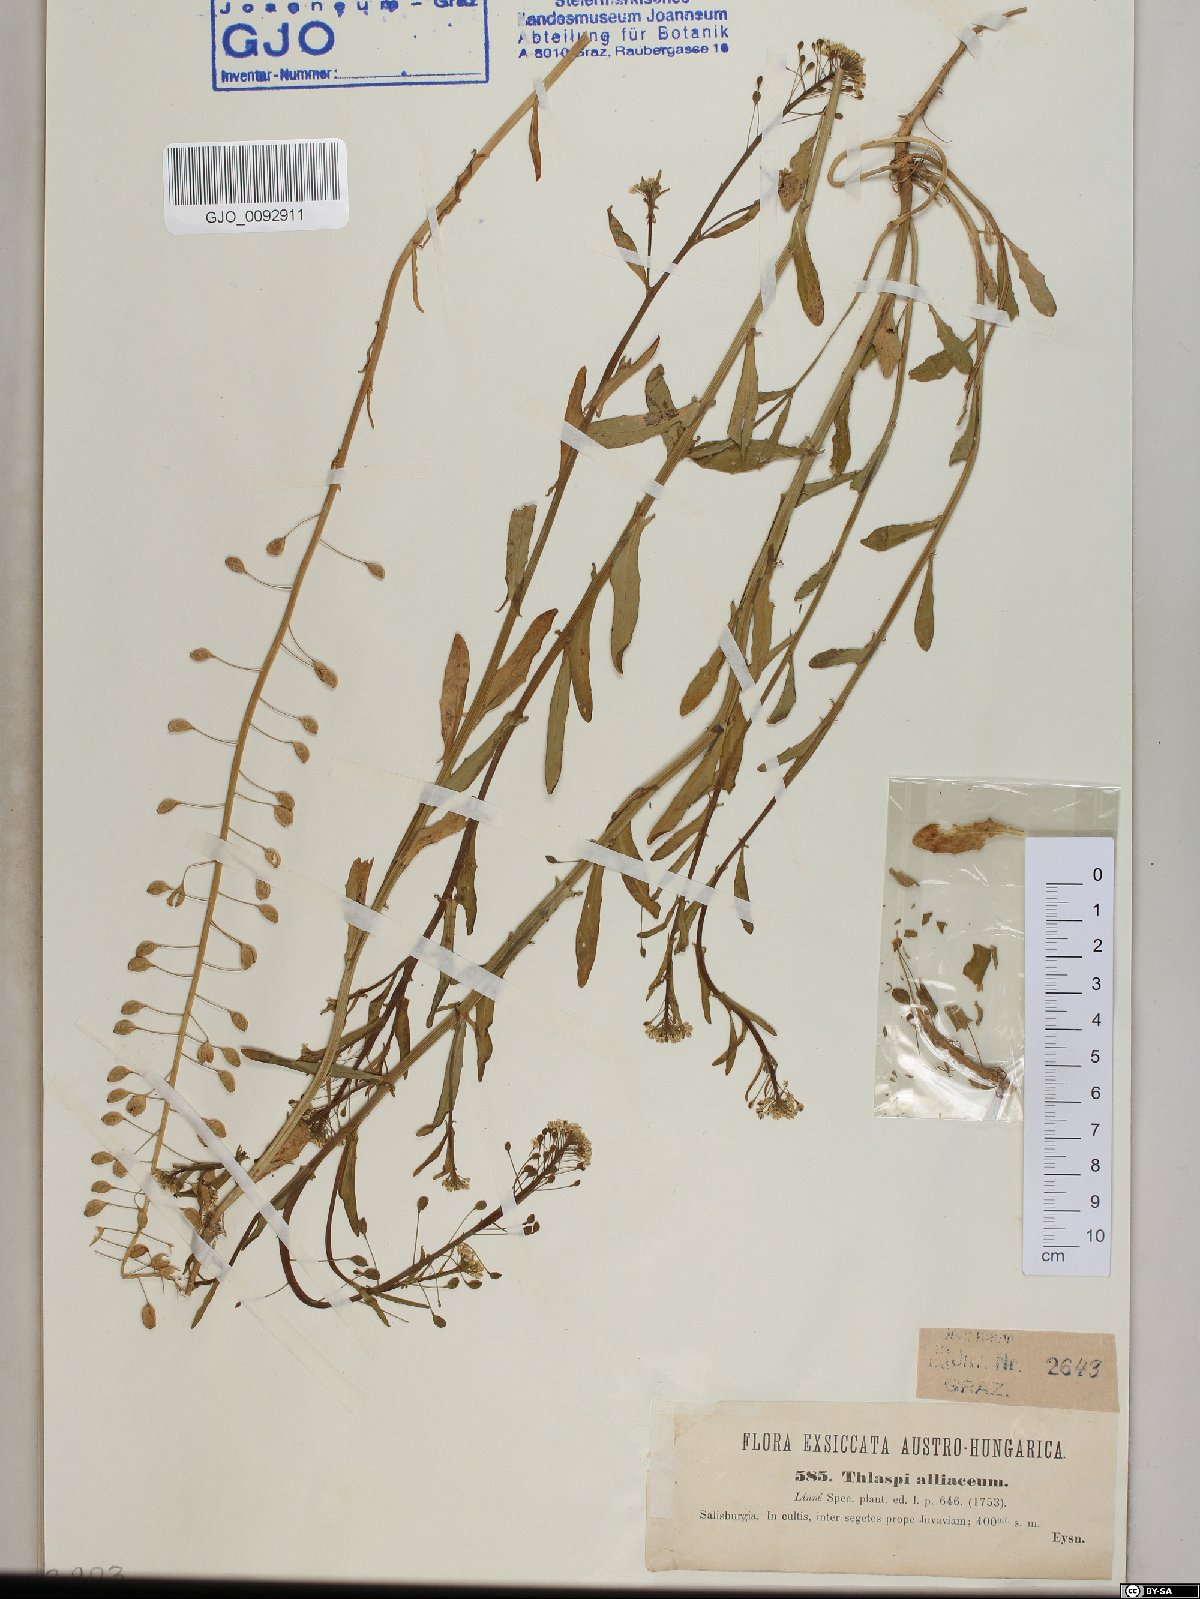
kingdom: Plantae
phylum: Tracheophyta
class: Magnoliopsida
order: Brassicales
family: Brassicaceae
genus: Mummenhoffia
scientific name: Mummenhoffia alliacea
